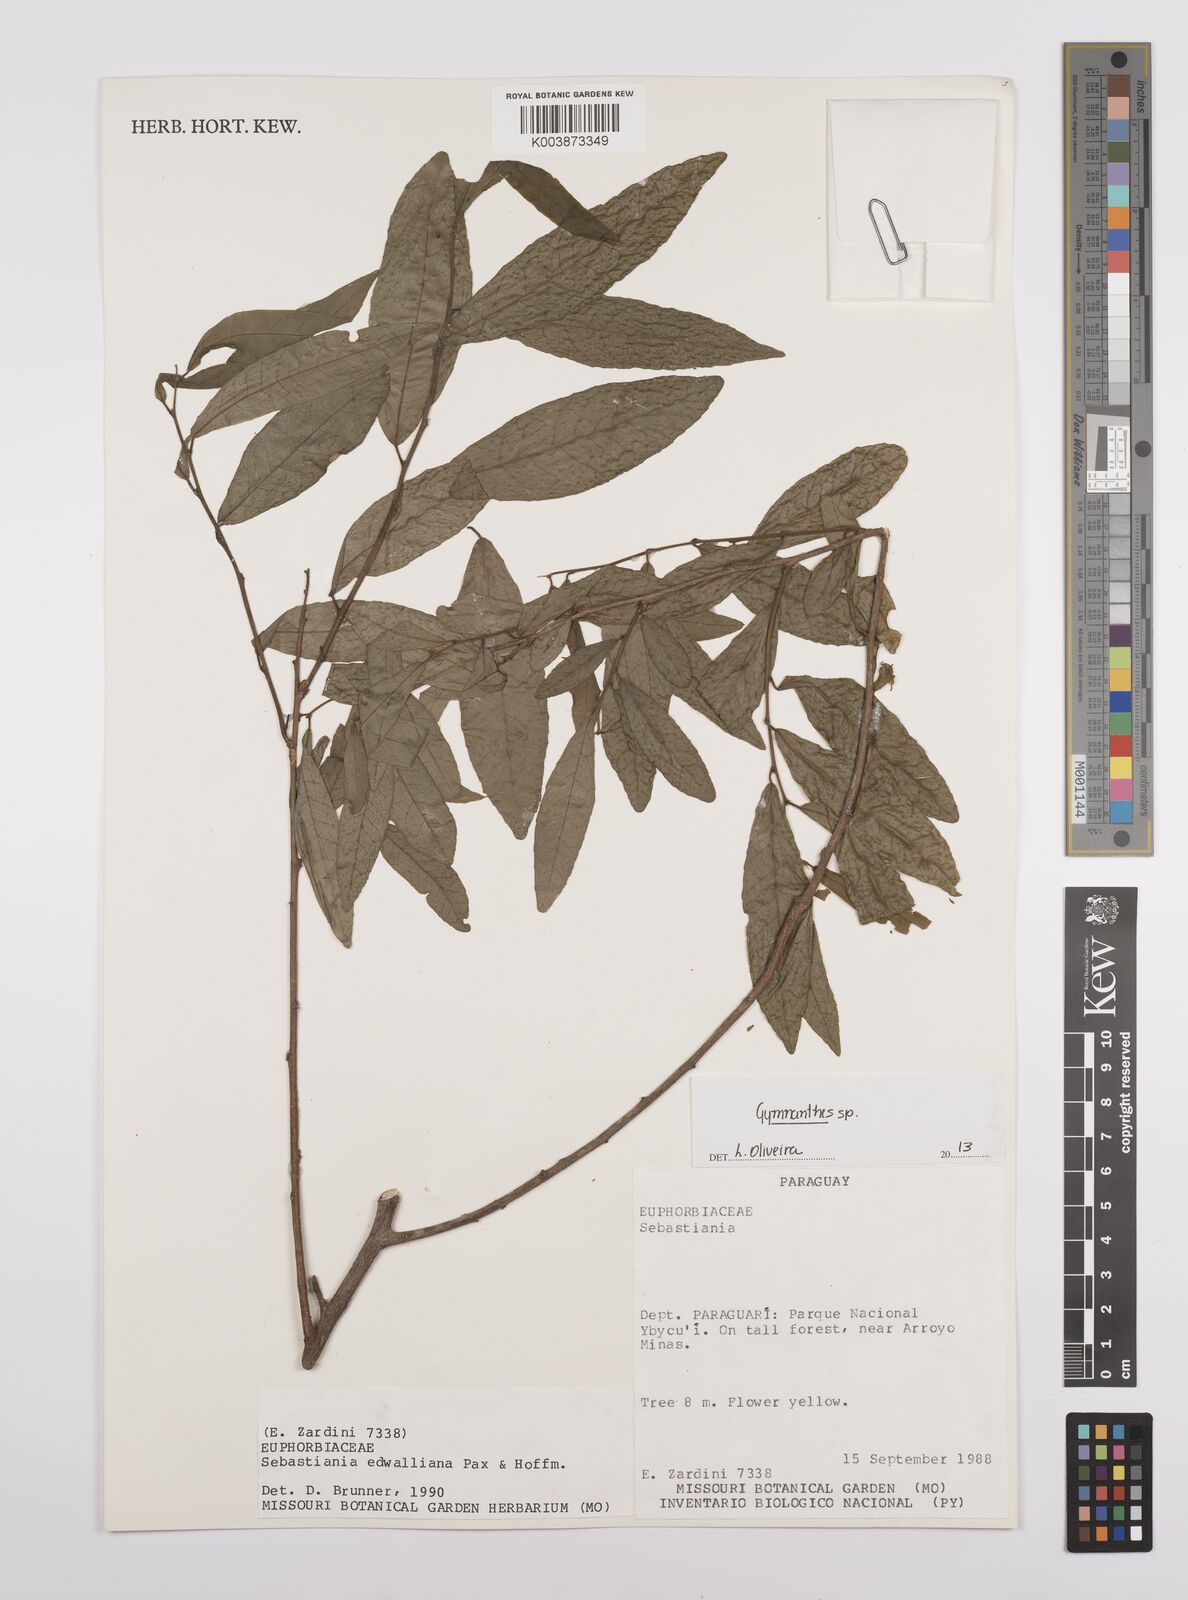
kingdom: Plantae
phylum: Tracheophyta
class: Magnoliopsida
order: Malpighiales
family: Euphorbiaceae
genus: Gymnanthes
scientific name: Gymnanthes
